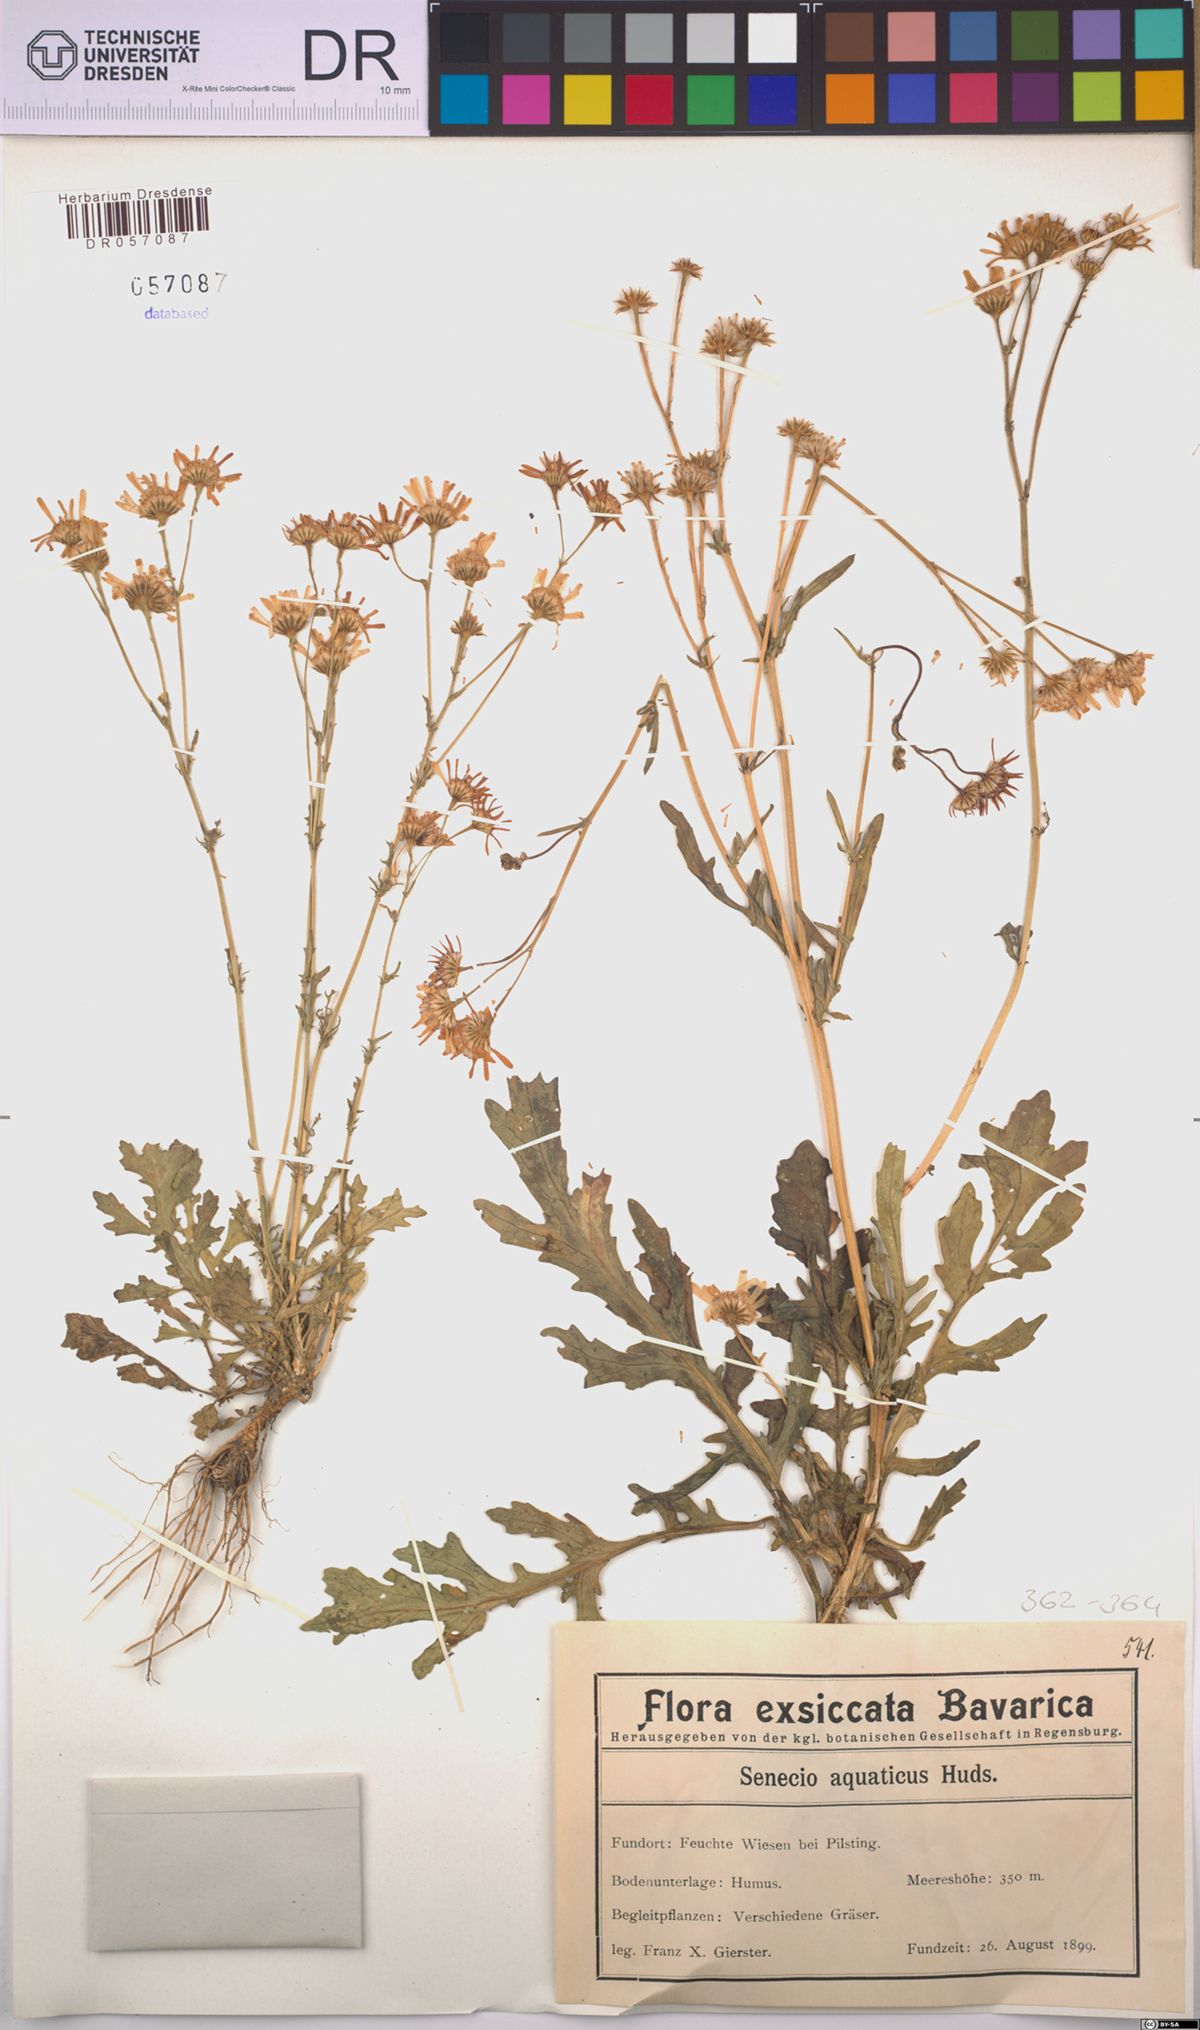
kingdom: Plantae
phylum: Tracheophyta
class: Magnoliopsida
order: Asterales
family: Asteraceae
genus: Jacobaea
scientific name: Jacobaea aquatica
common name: Water ragwort
